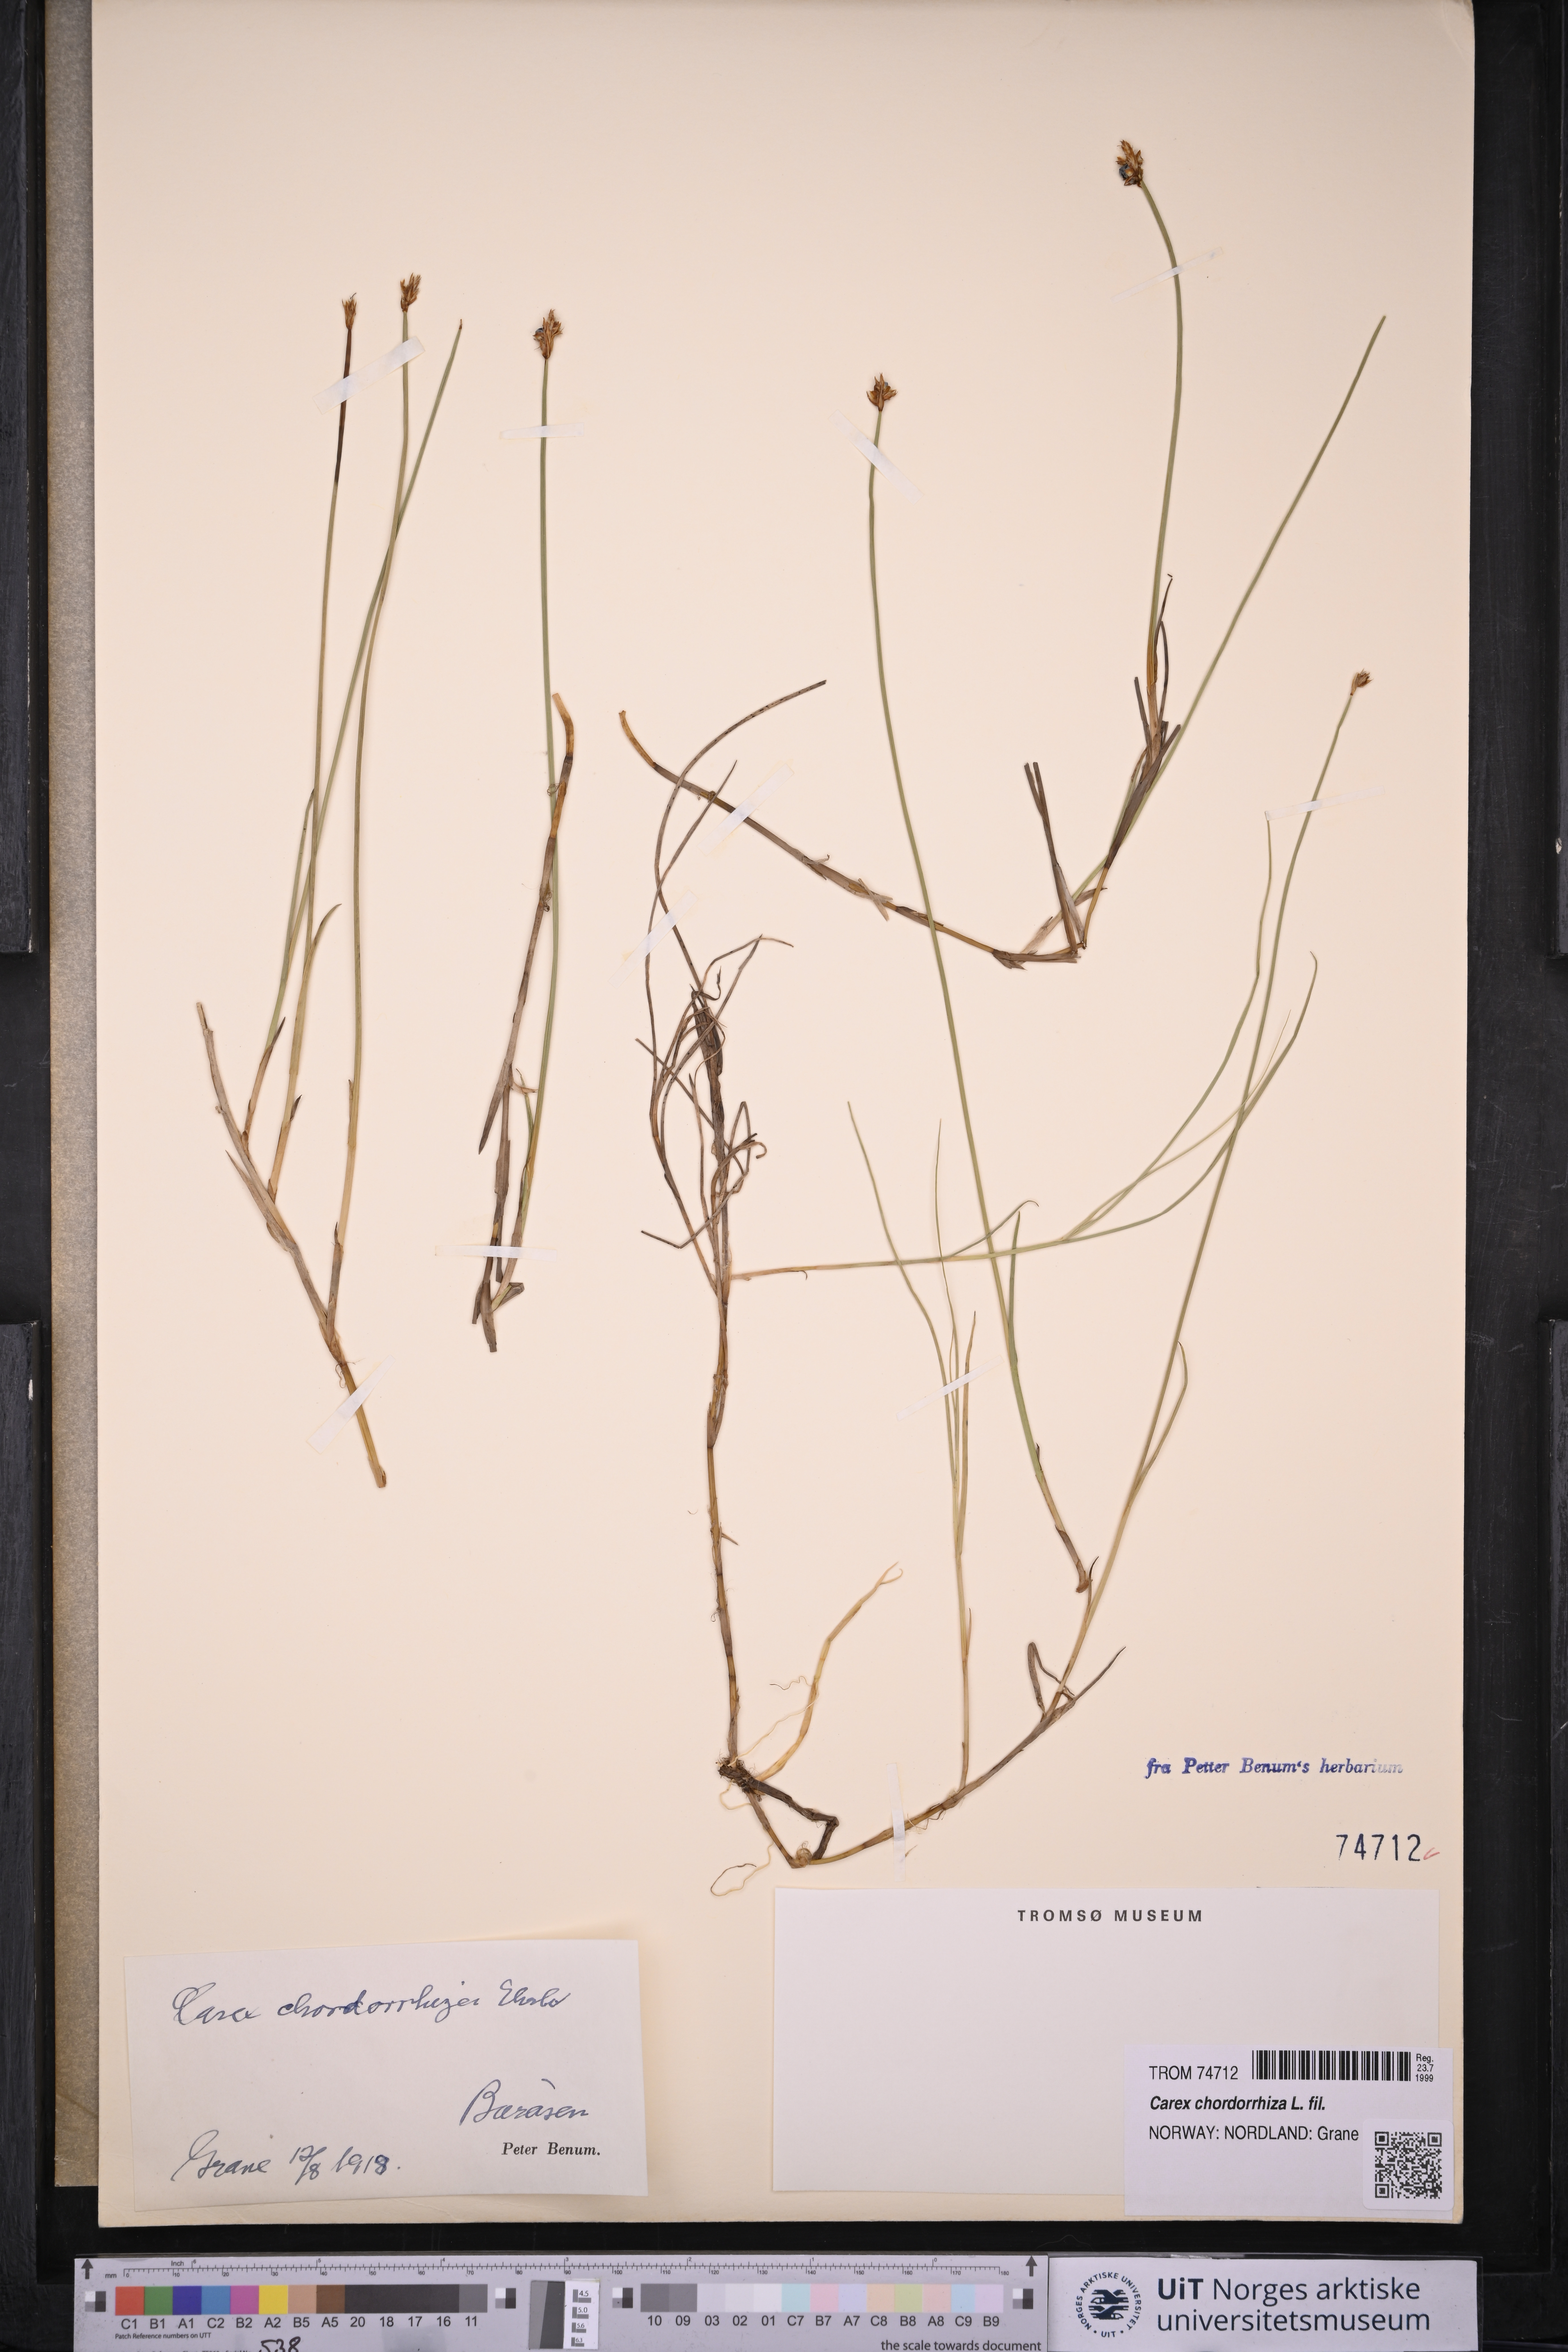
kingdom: Plantae
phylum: Tracheophyta
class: Liliopsida
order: Poales
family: Cyperaceae
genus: Carex
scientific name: Carex chordorrhiza
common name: String sedge
